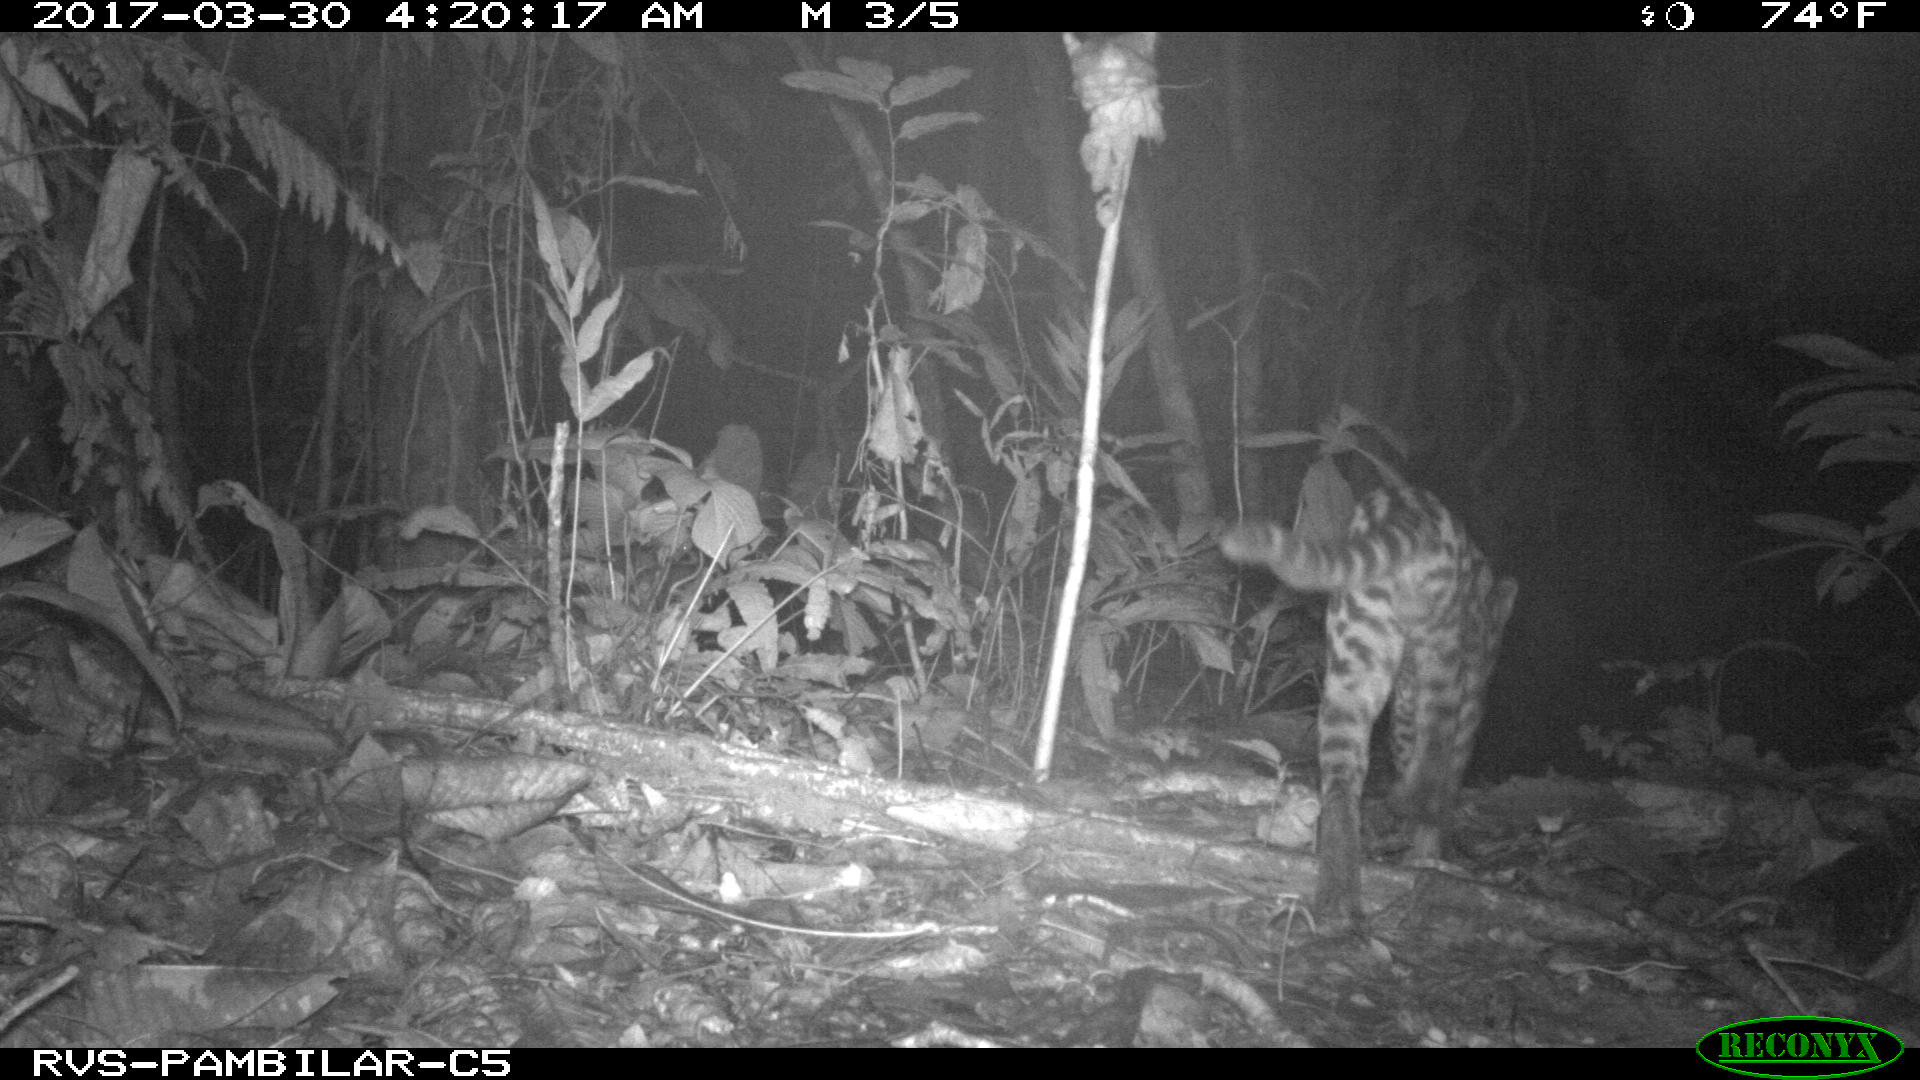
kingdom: Animalia
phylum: Chordata
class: Mammalia
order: Carnivora
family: Felidae
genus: Leopardus
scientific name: Leopardus pardalis
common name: Ocelot
